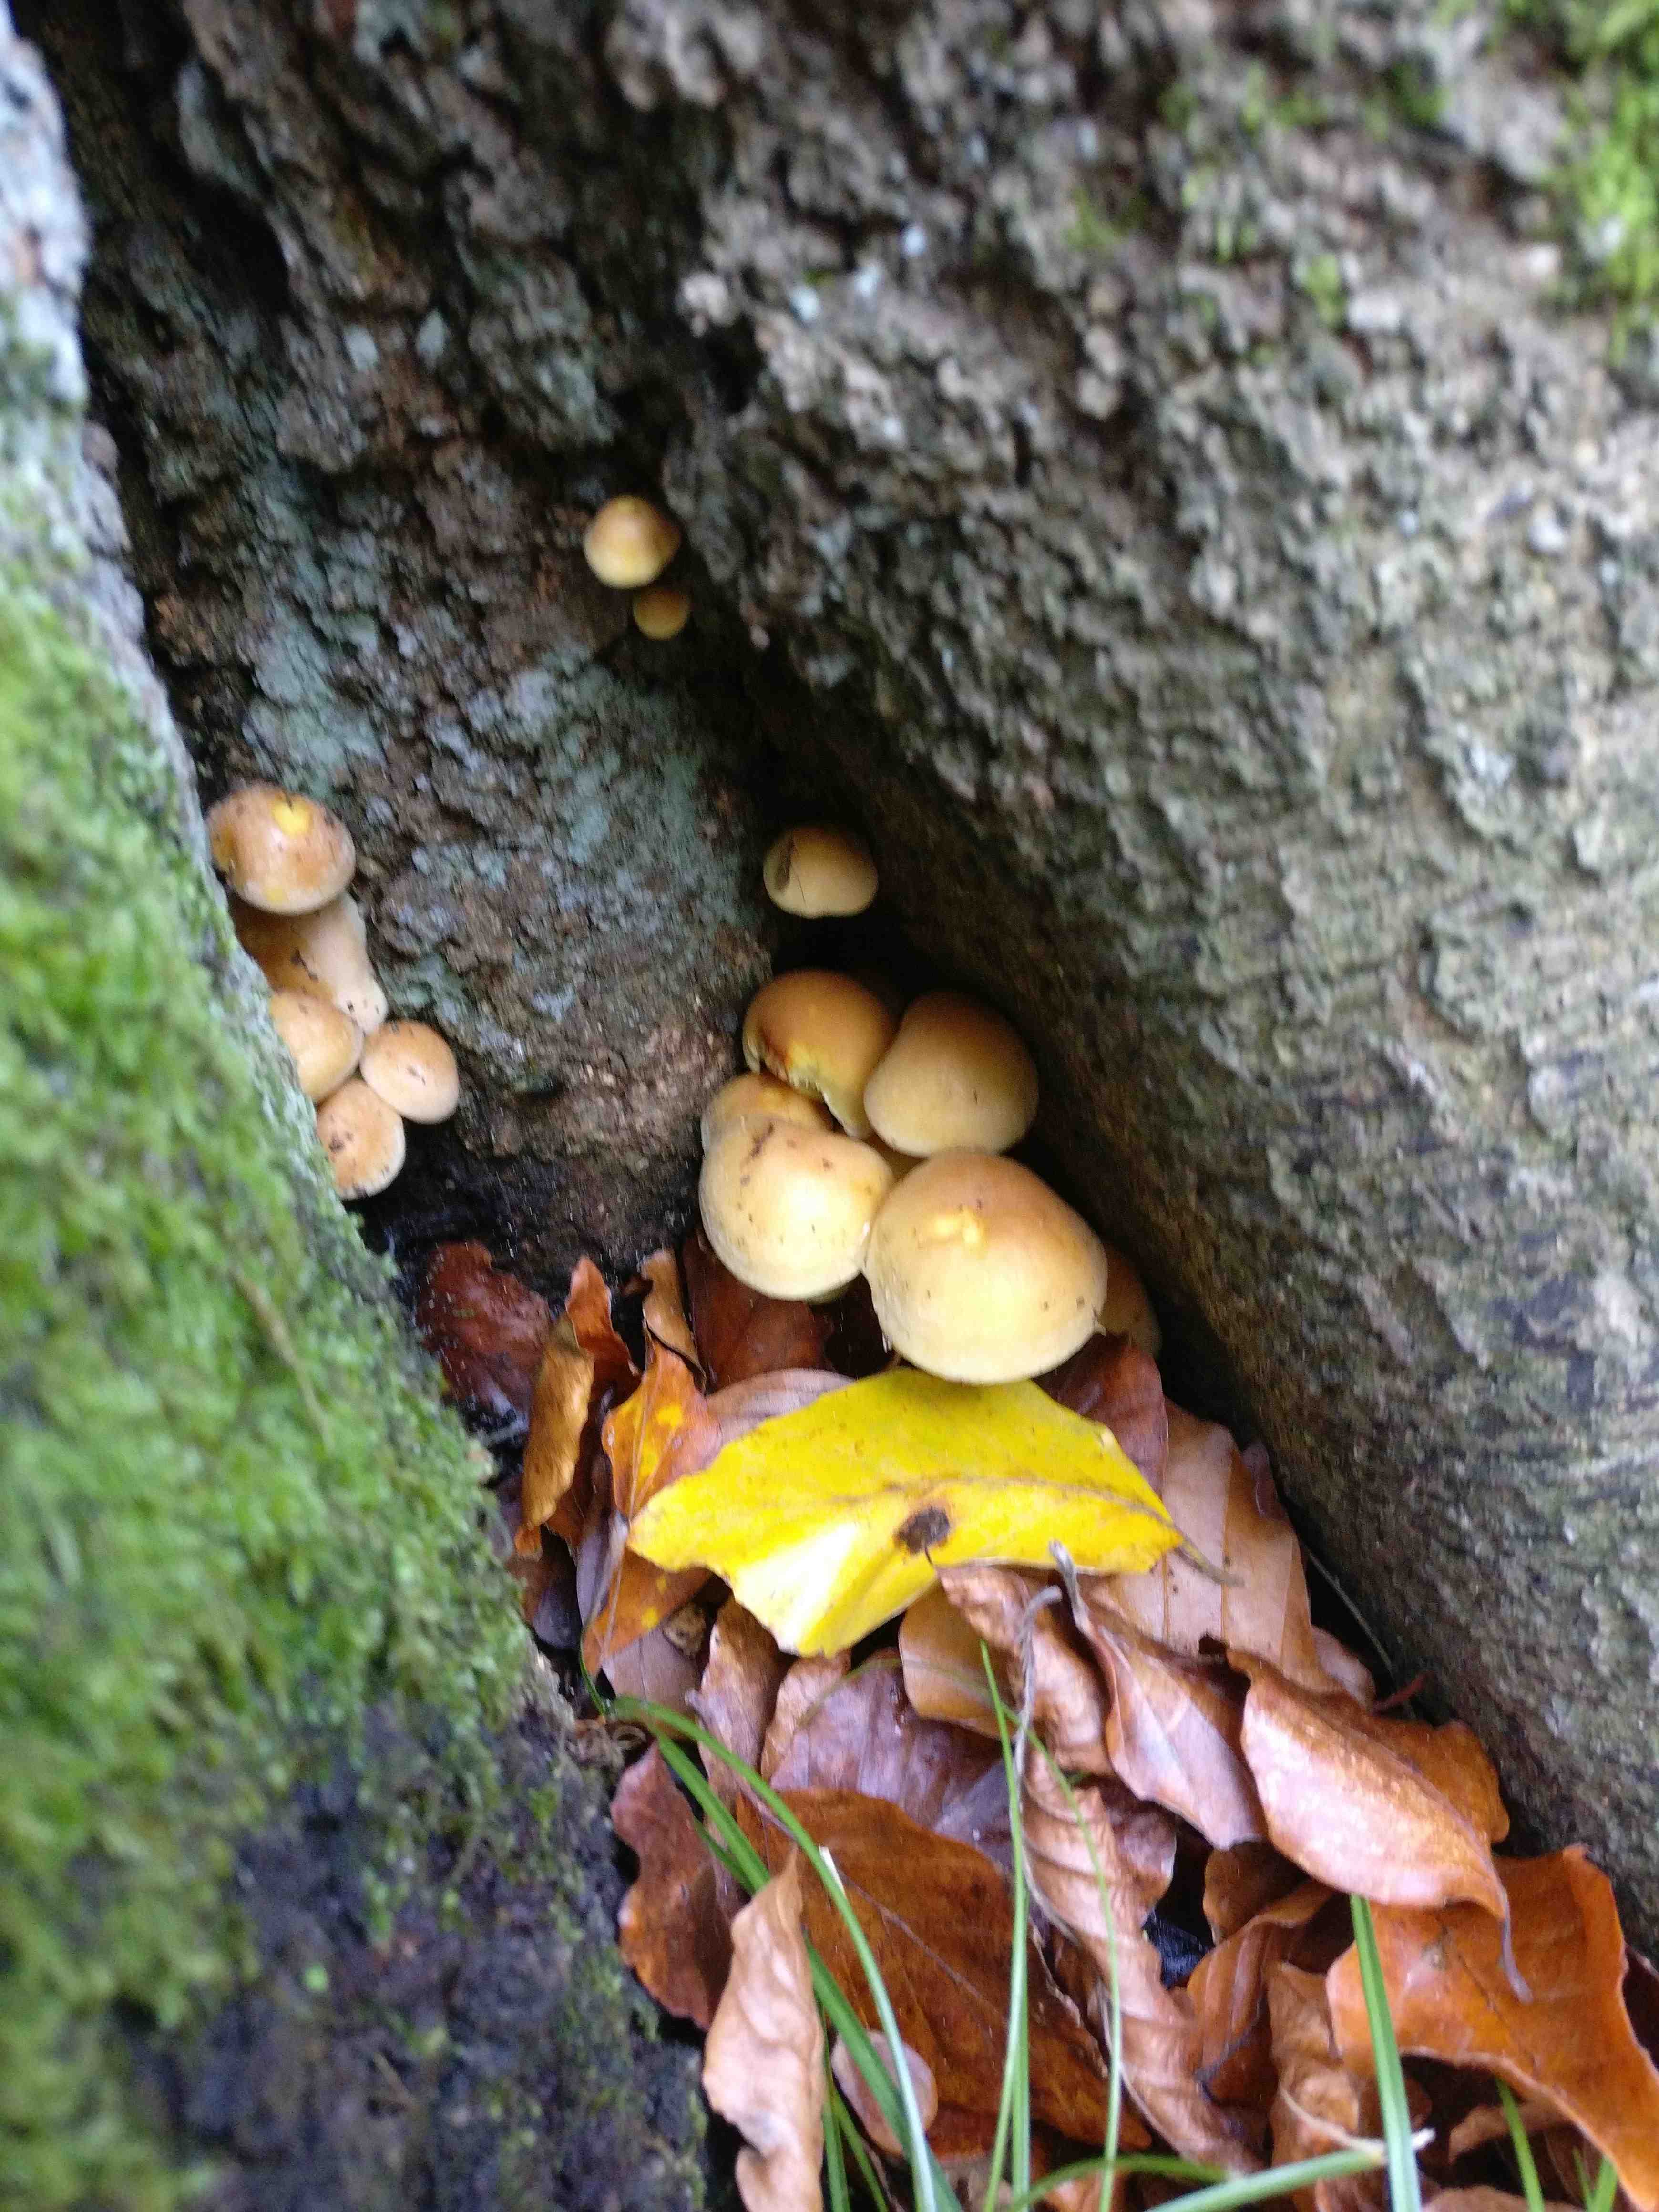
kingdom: Fungi
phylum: Basidiomycota
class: Agaricomycetes
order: Agaricales
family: Strophariaceae
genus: Hypholoma
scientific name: Hypholoma fasciculare
